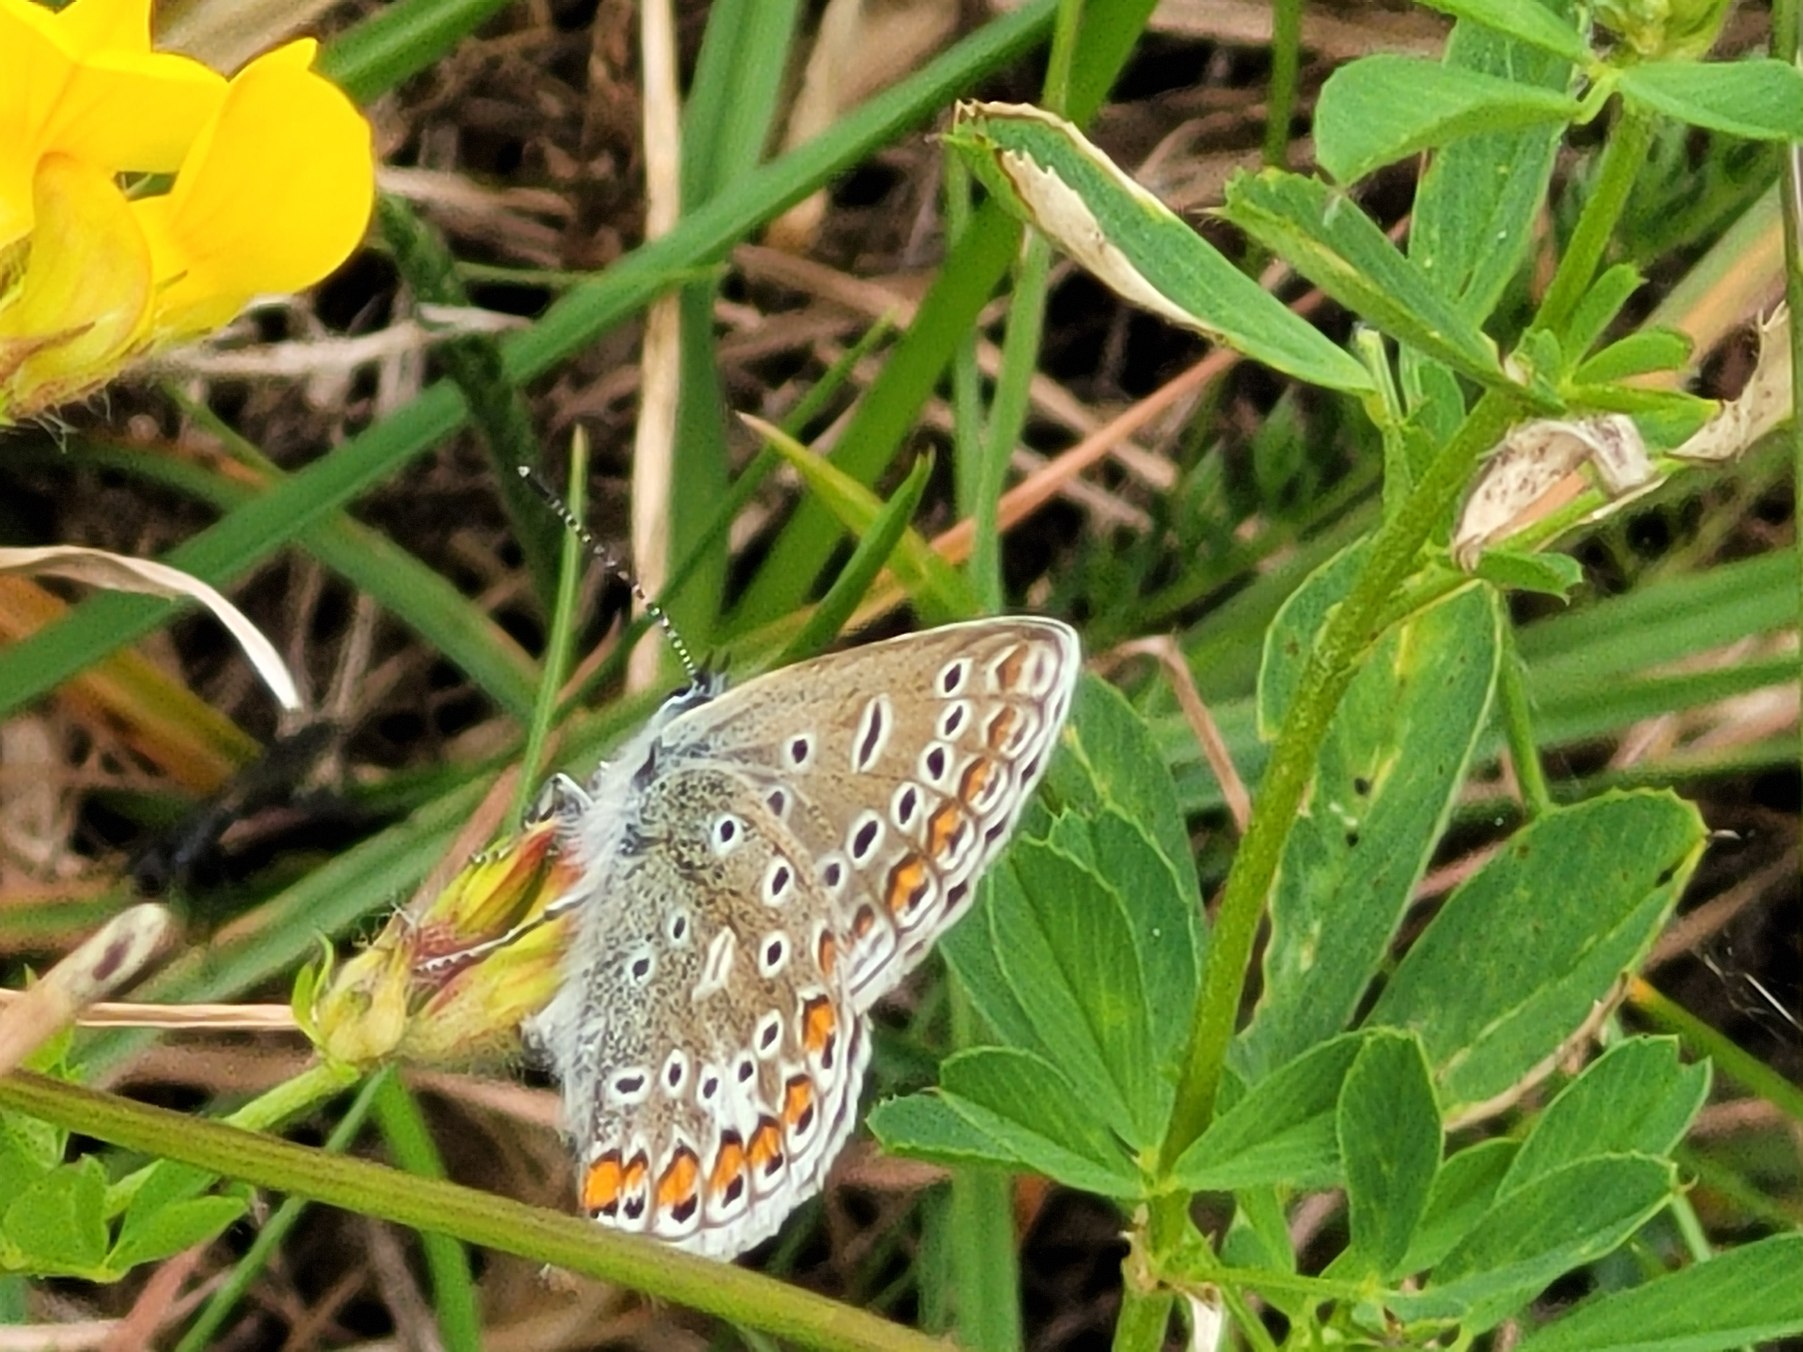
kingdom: Animalia
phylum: Arthropoda
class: Insecta
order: Lepidoptera
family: Lycaenidae
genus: Polyommatus
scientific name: Polyommatus icarus
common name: Almindelig blåfugl
